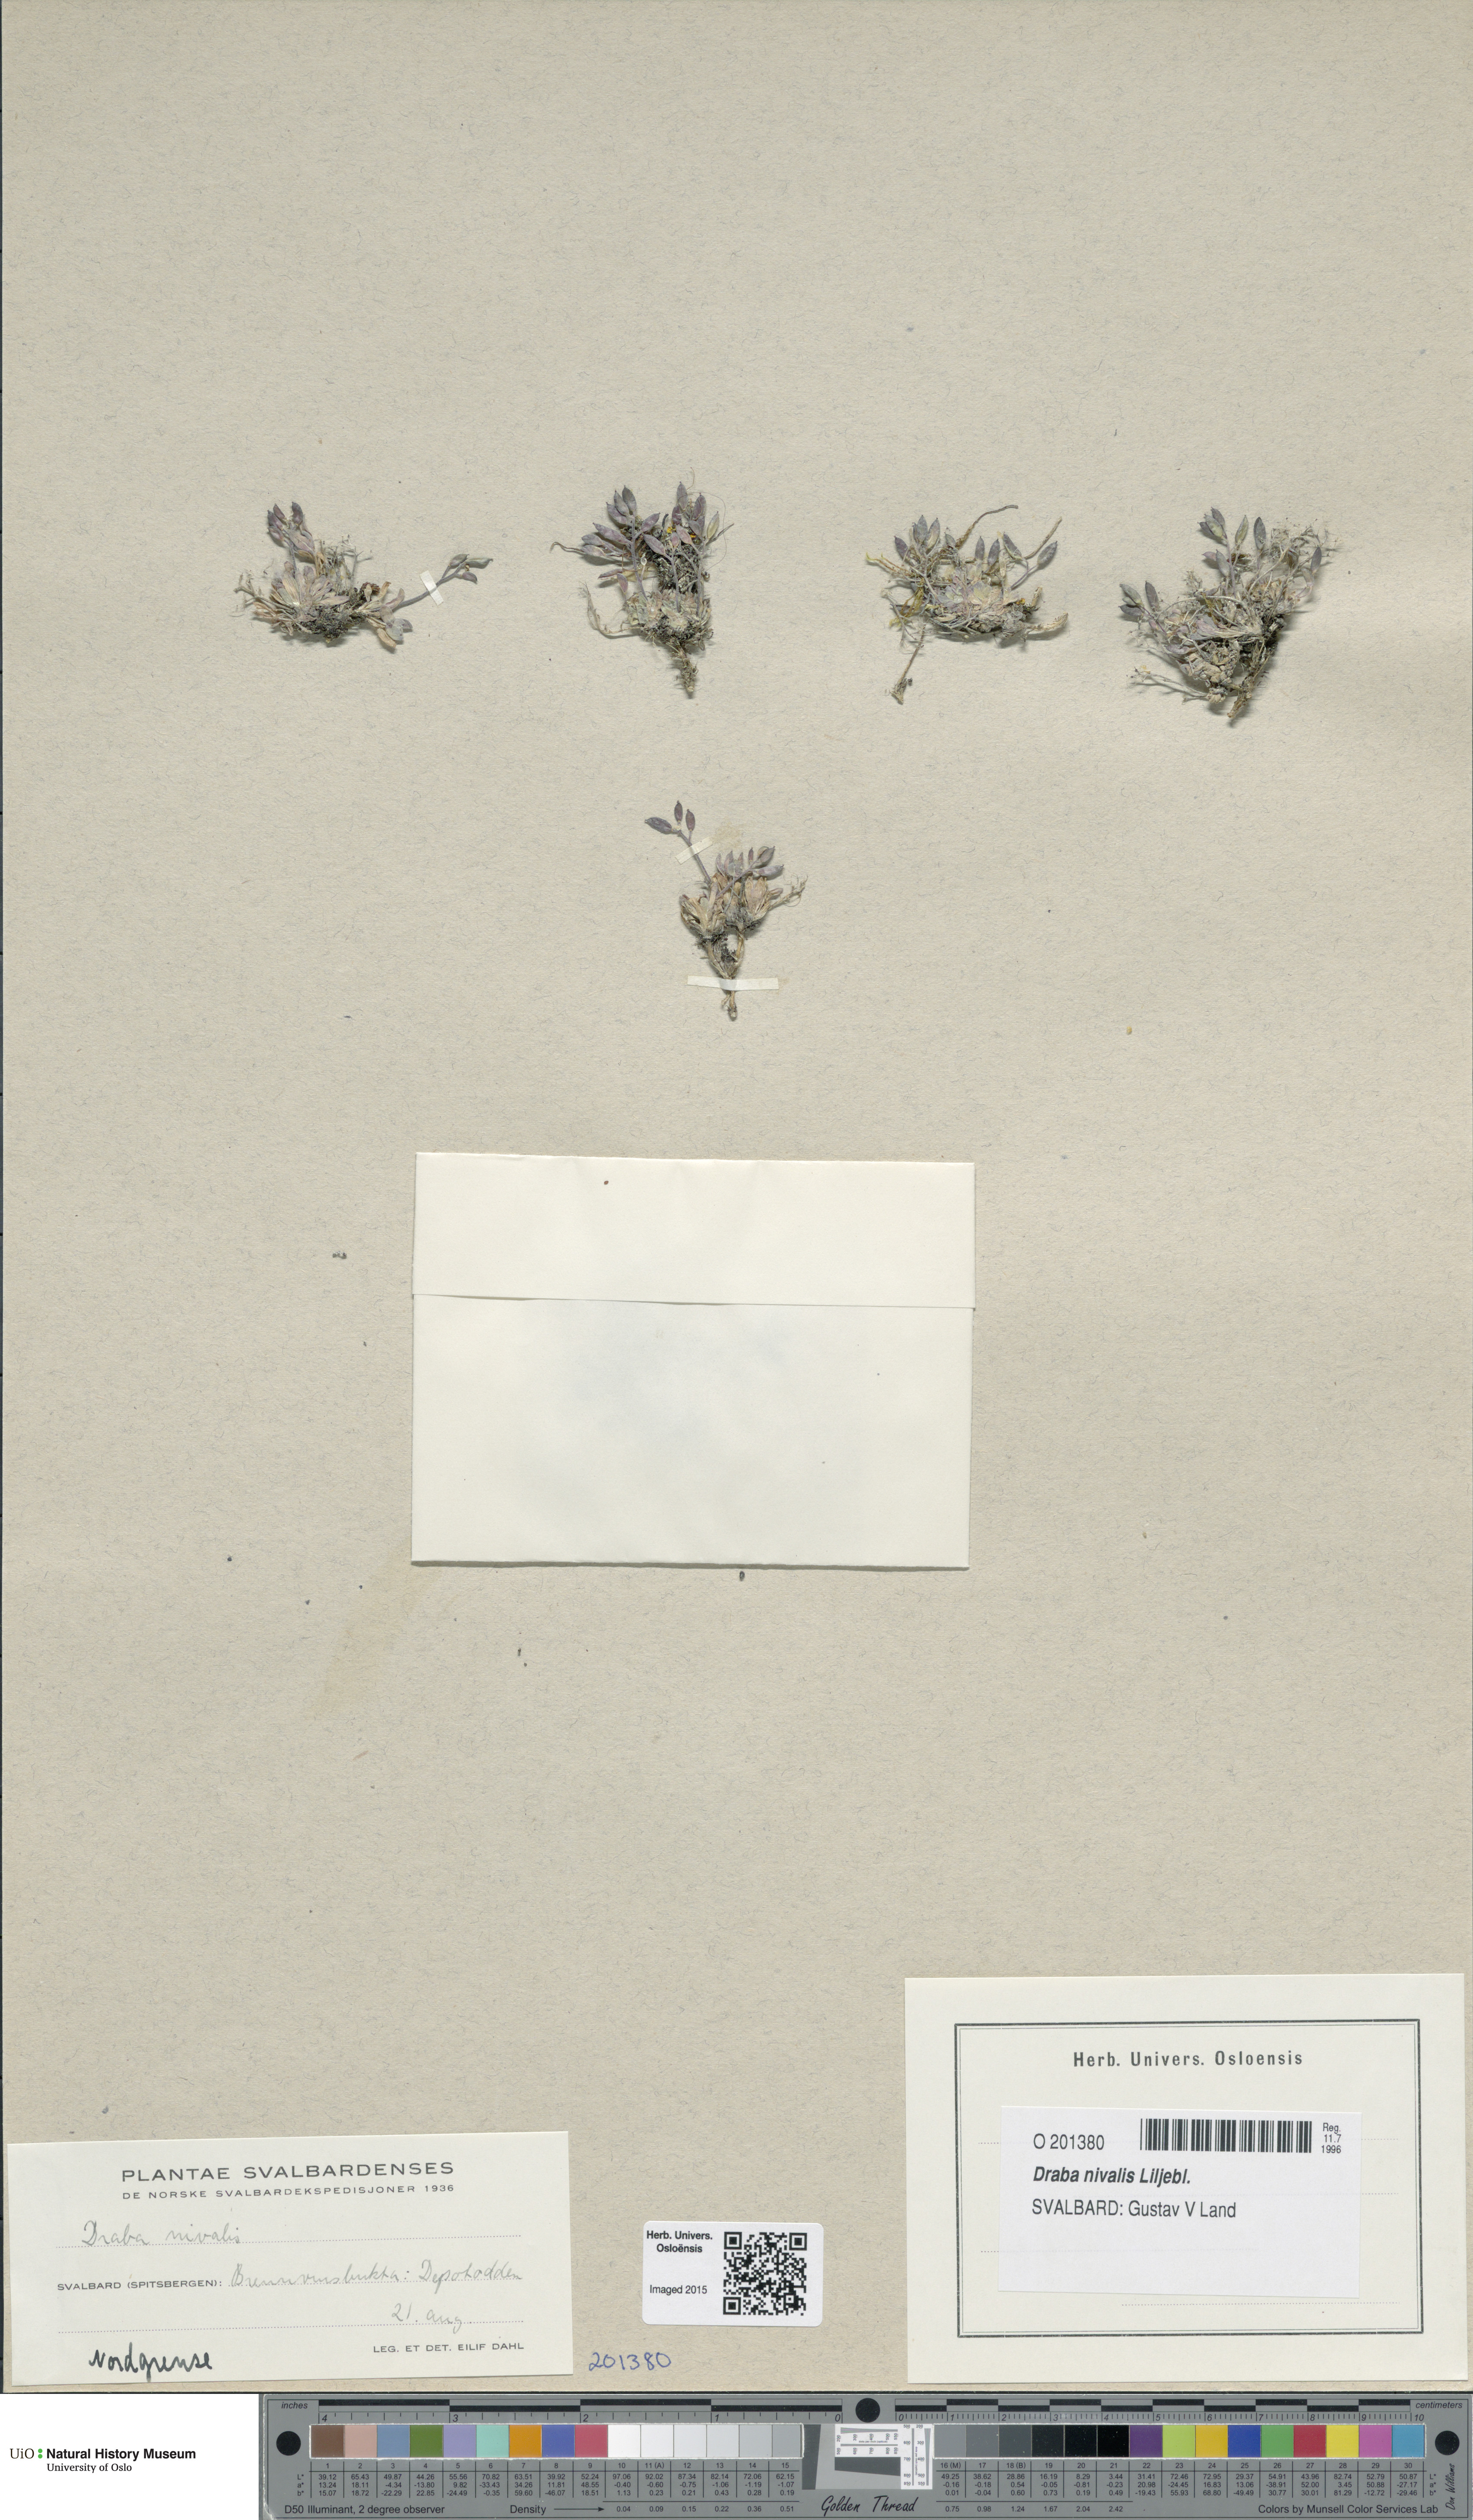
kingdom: Plantae
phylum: Tracheophyta
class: Magnoliopsida
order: Brassicales
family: Brassicaceae
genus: Draba
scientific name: Draba nivalis
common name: Snow draba
